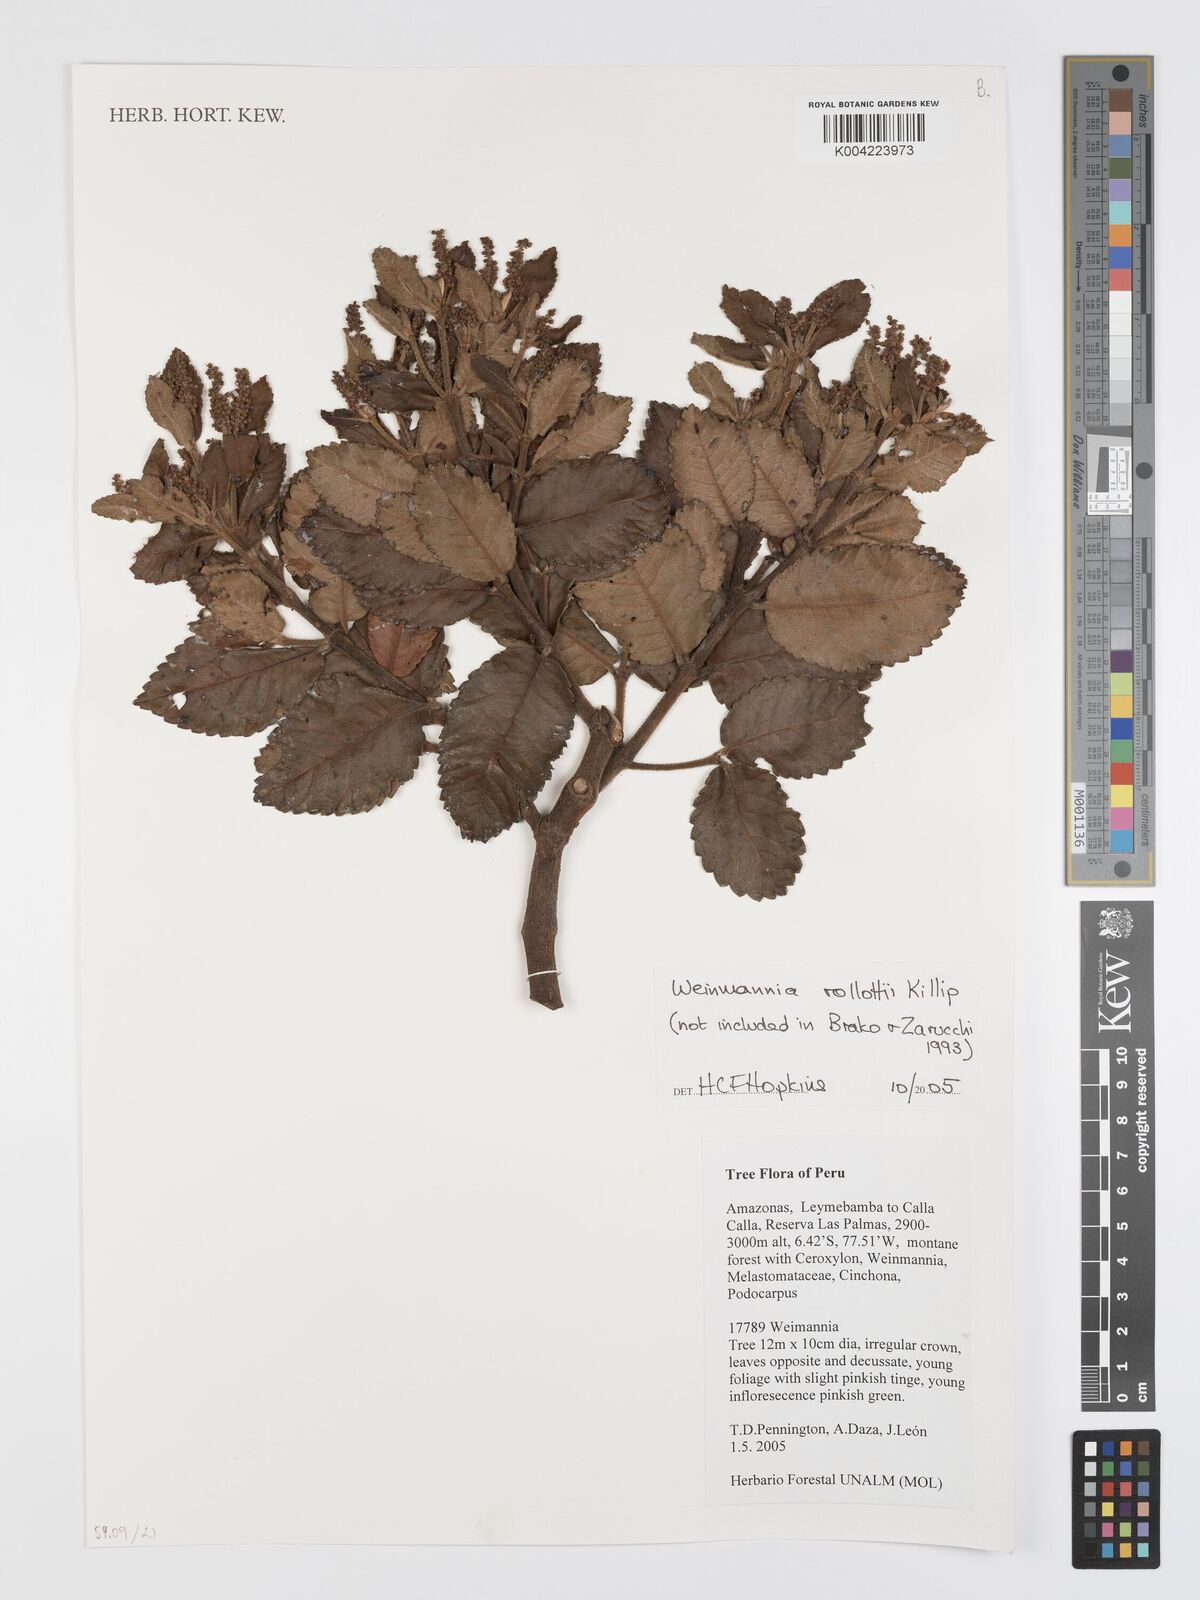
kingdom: Plantae
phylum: Tracheophyta
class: Magnoliopsida
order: Oxalidales
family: Cunoniaceae
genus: Weinmannia
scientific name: Weinmannia rollottii
